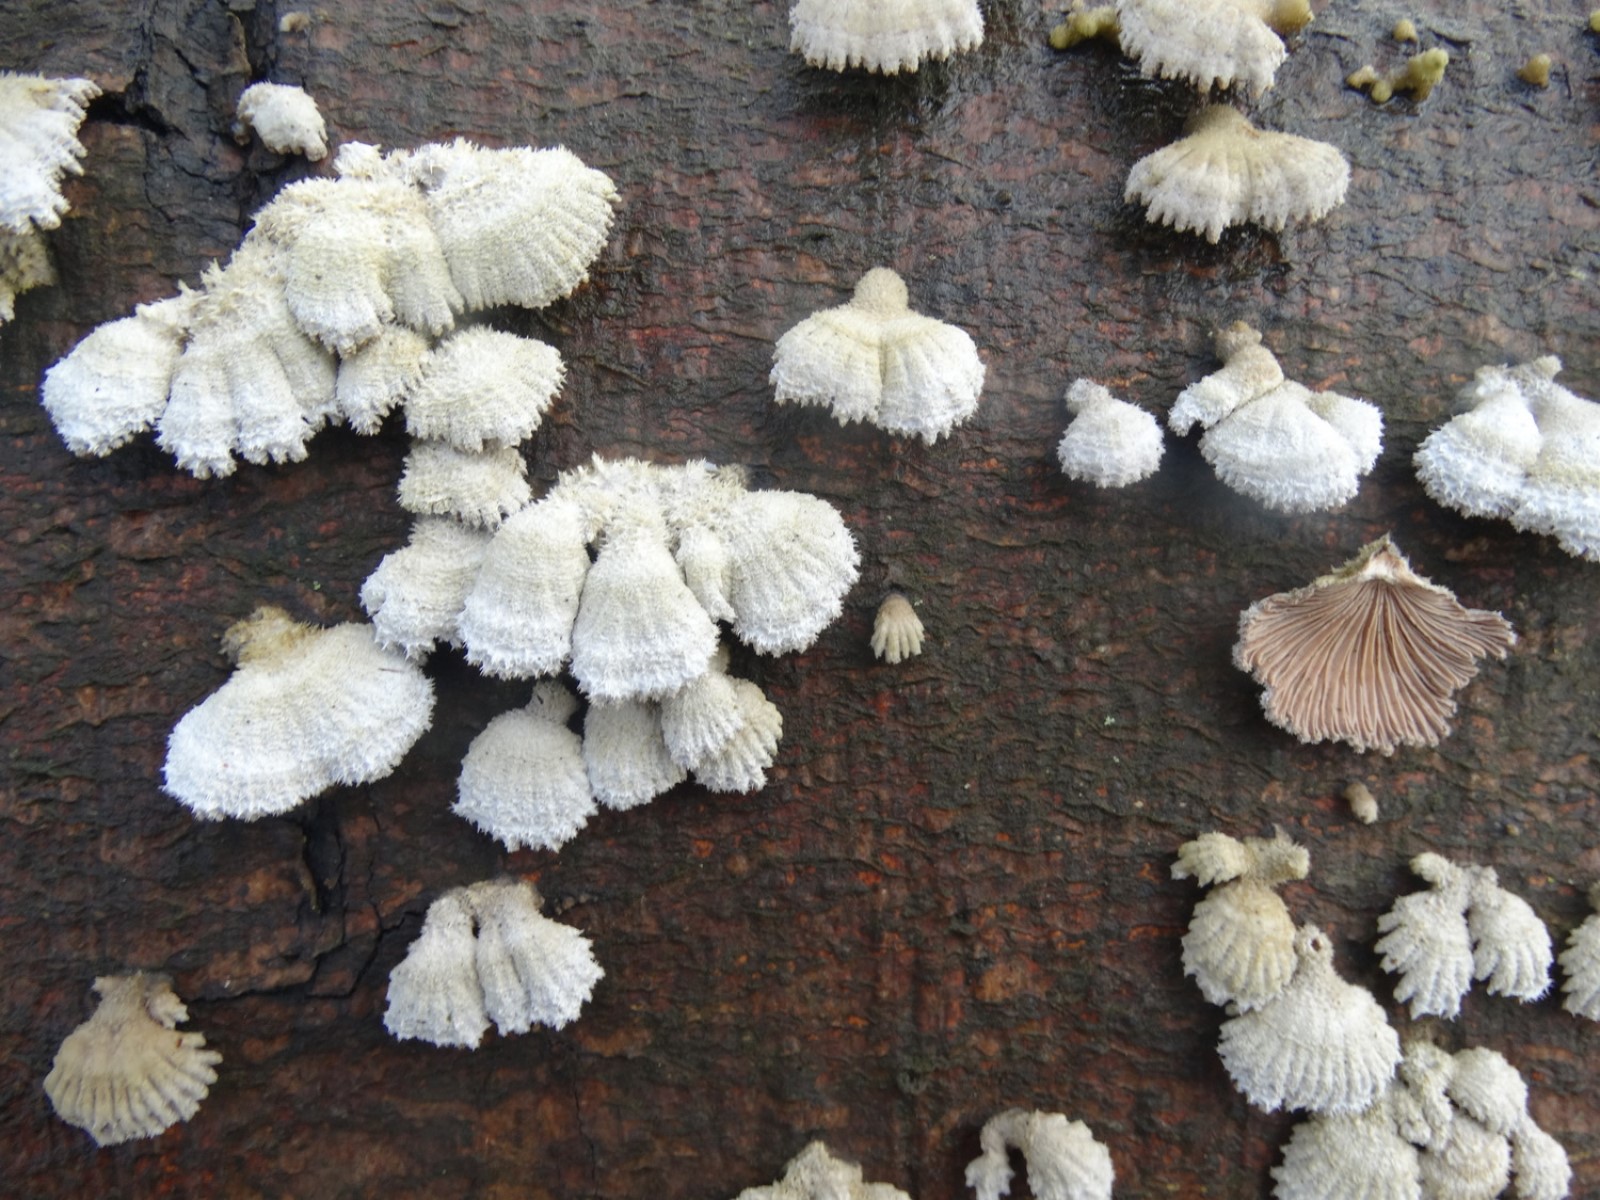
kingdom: Fungi
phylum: Basidiomycota
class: Agaricomycetes
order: Agaricales
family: Schizophyllaceae
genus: Schizophyllum
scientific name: Schizophyllum commune
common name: kløvblad
